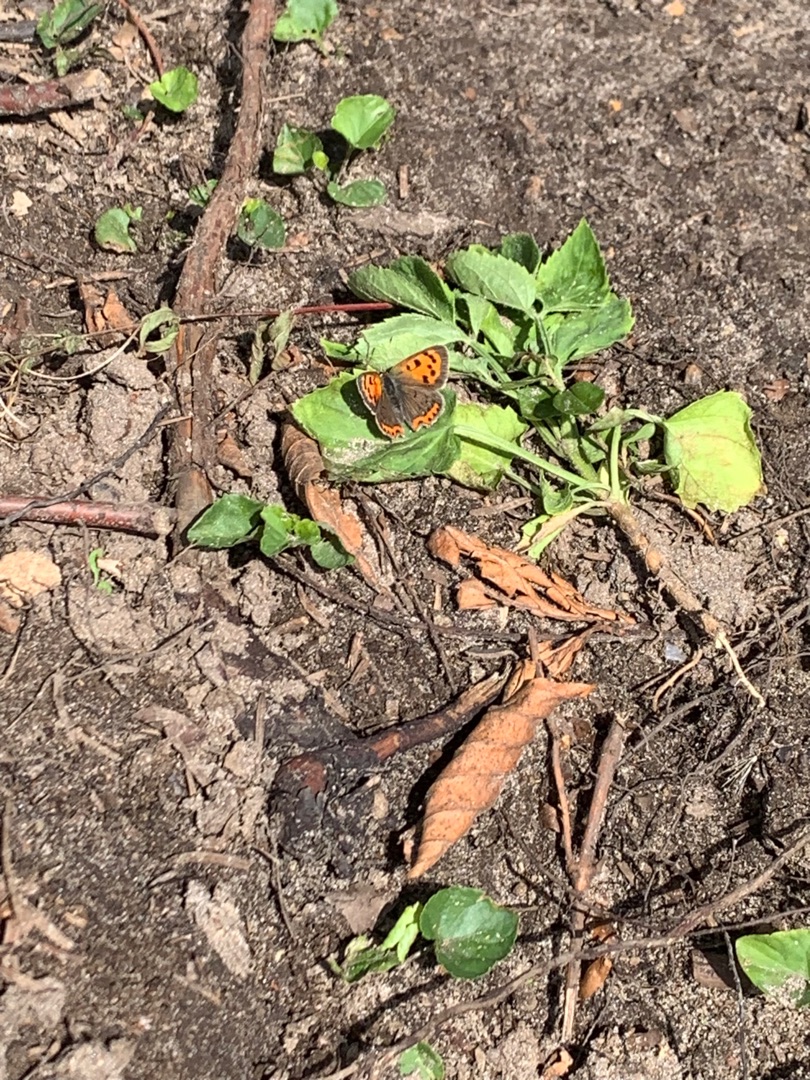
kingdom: Animalia
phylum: Arthropoda
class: Insecta
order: Lepidoptera
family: Lycaenidae
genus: Lycaena
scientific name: Lycaena phlaeas
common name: Lille ildfugl
